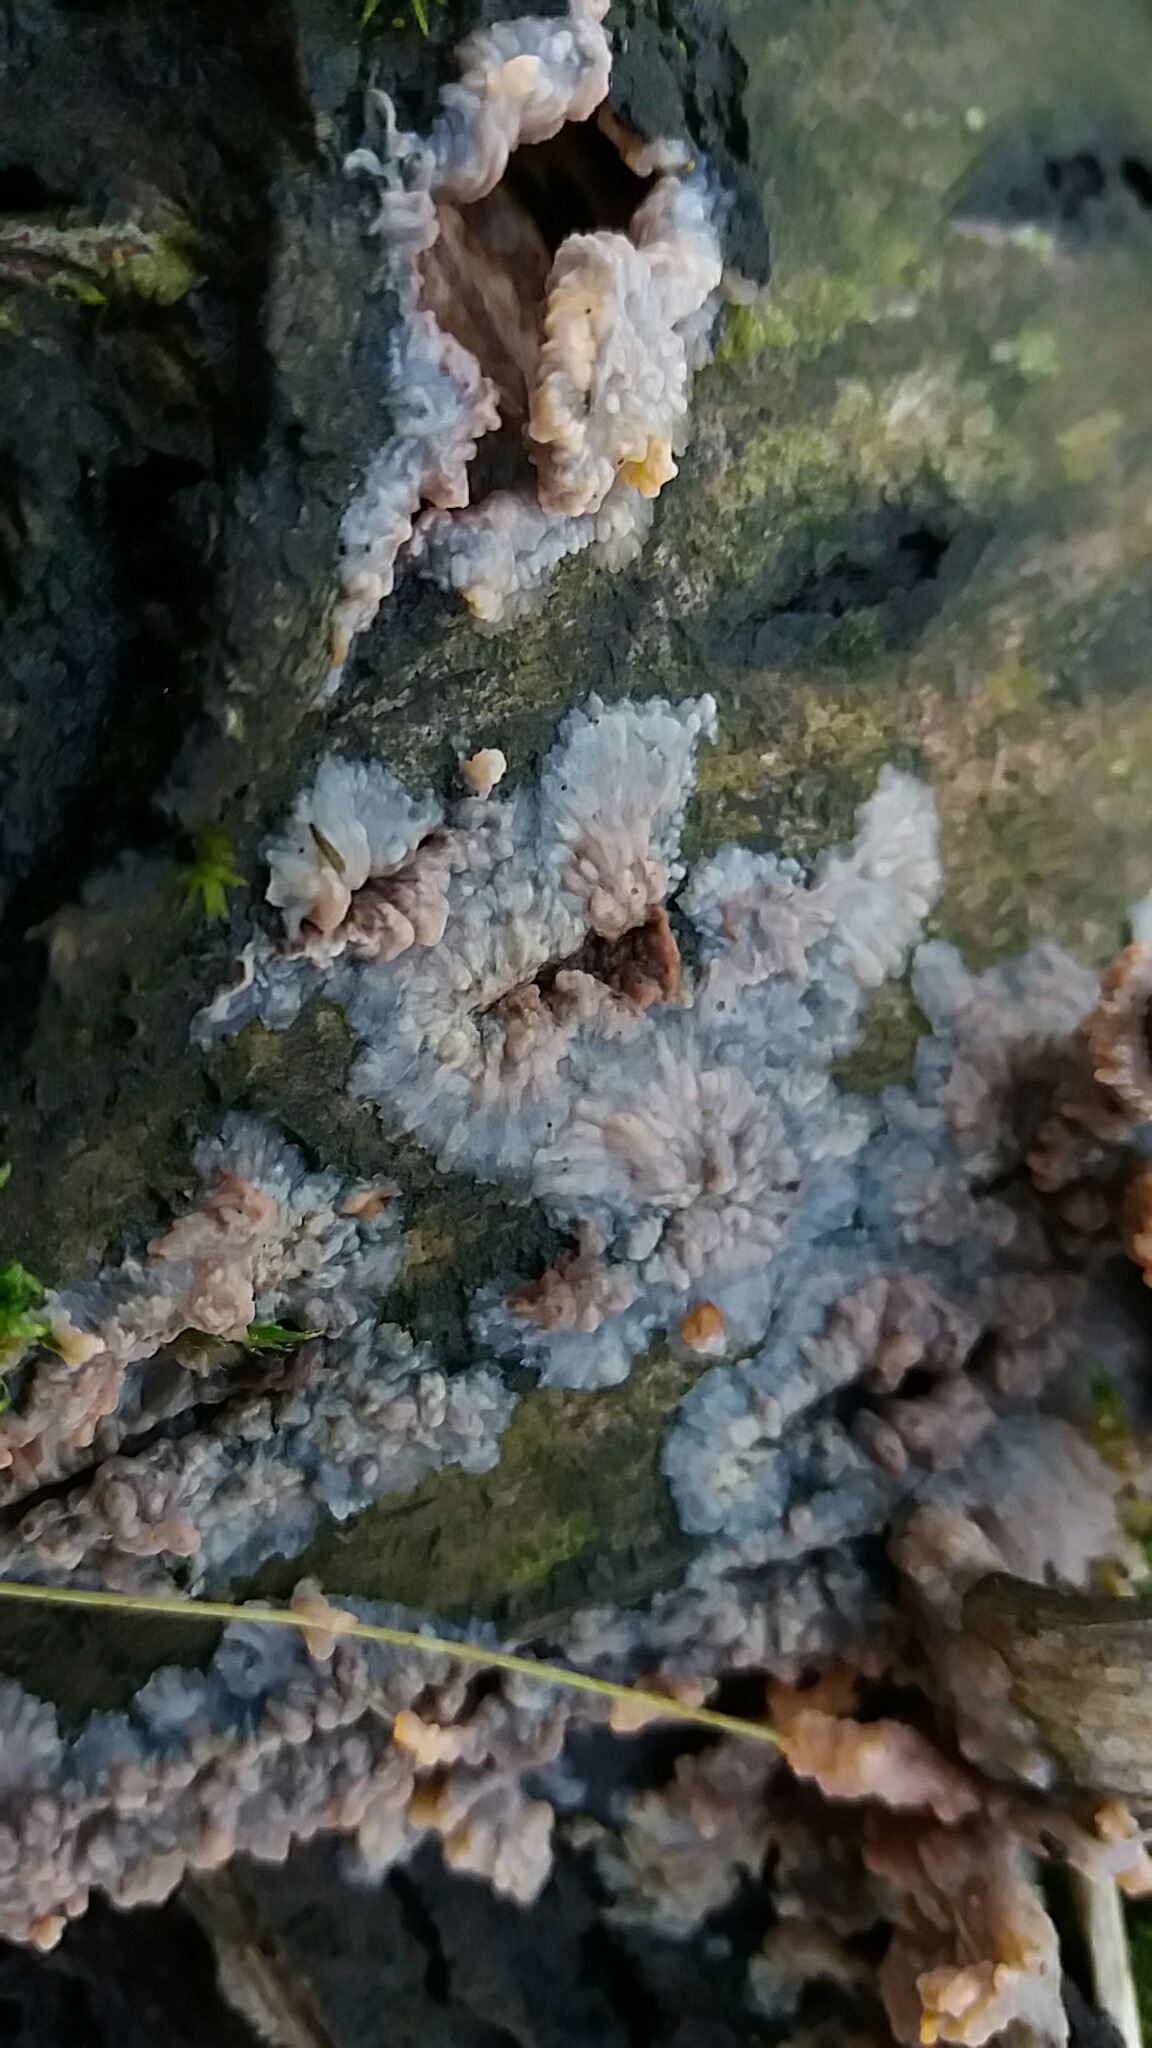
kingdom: Fungi
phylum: Basidiomycota
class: Agaricomycetes
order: Polyporales
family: Meruliaceae
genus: Phlebia
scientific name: Phlebia radiata
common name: stråle-åresvamp
